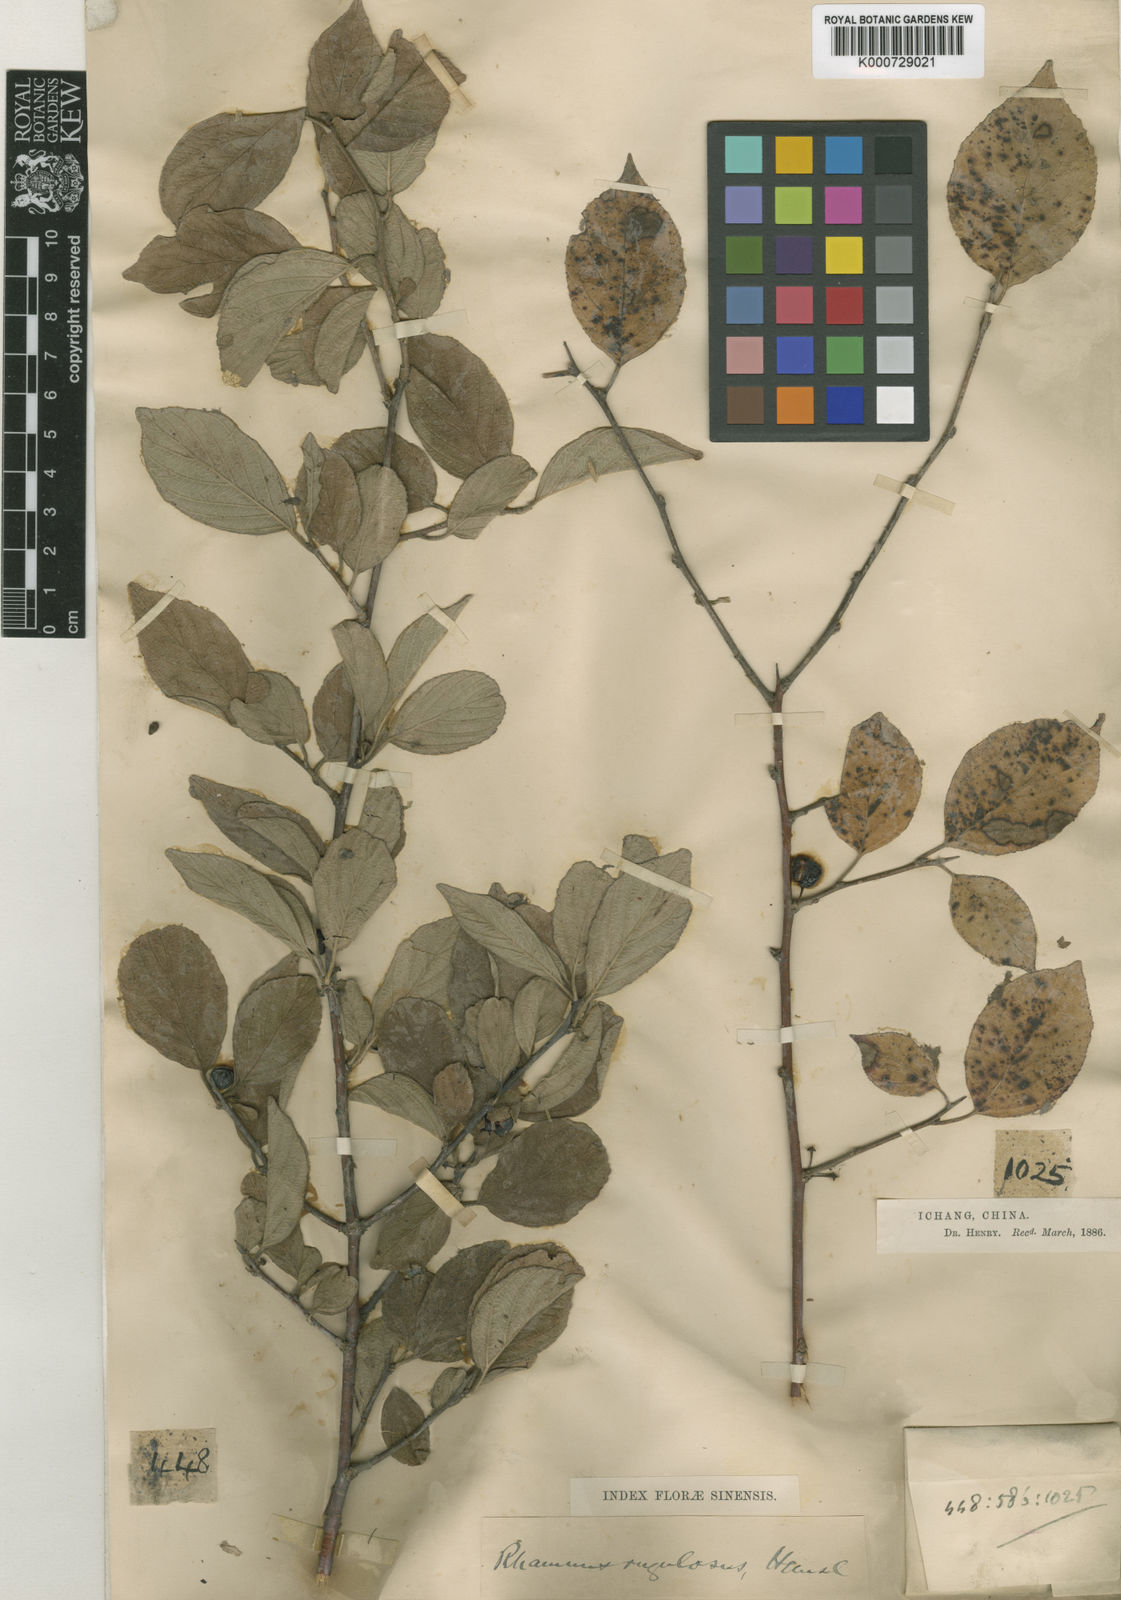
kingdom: Plantae
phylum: Tracheophyta
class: Magnoliopsida
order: Rosales
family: Rhamnaceae
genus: Rhamnus
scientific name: Rhamnus rugulosa
